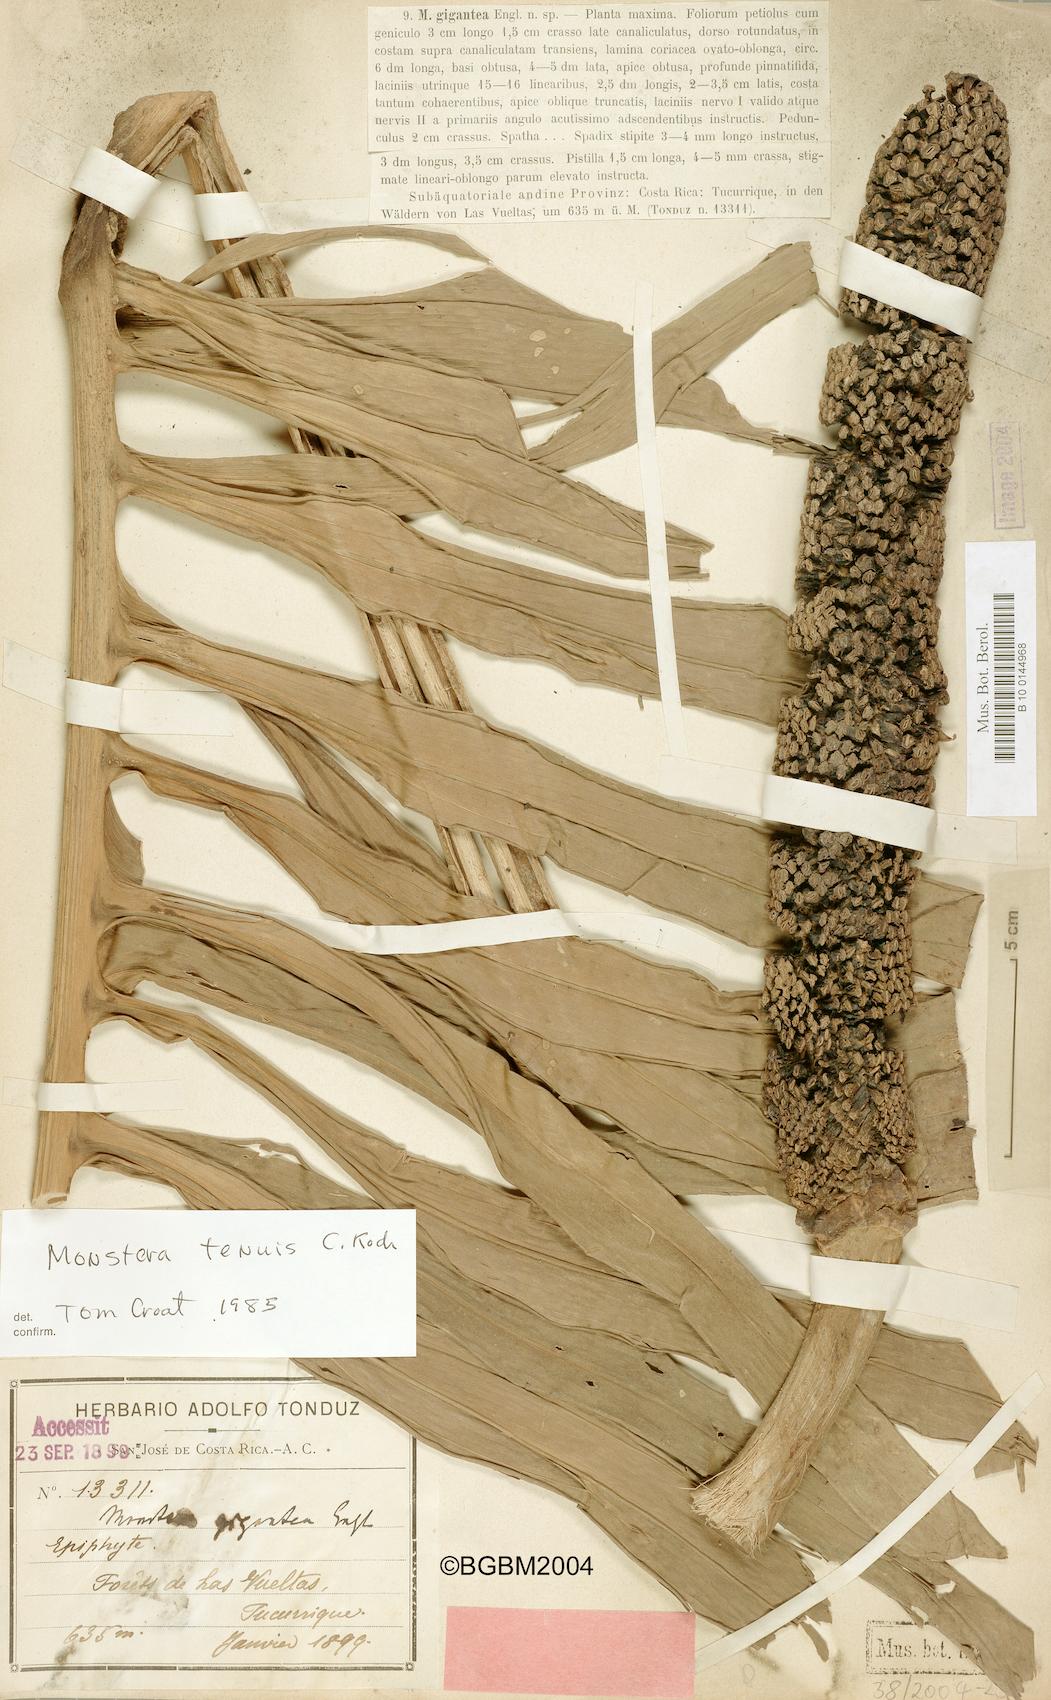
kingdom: Plantae
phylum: Tracheophyta
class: Liliopsida
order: Alismatales
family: Araceae
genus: Monstera
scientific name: Monstera tenuis
